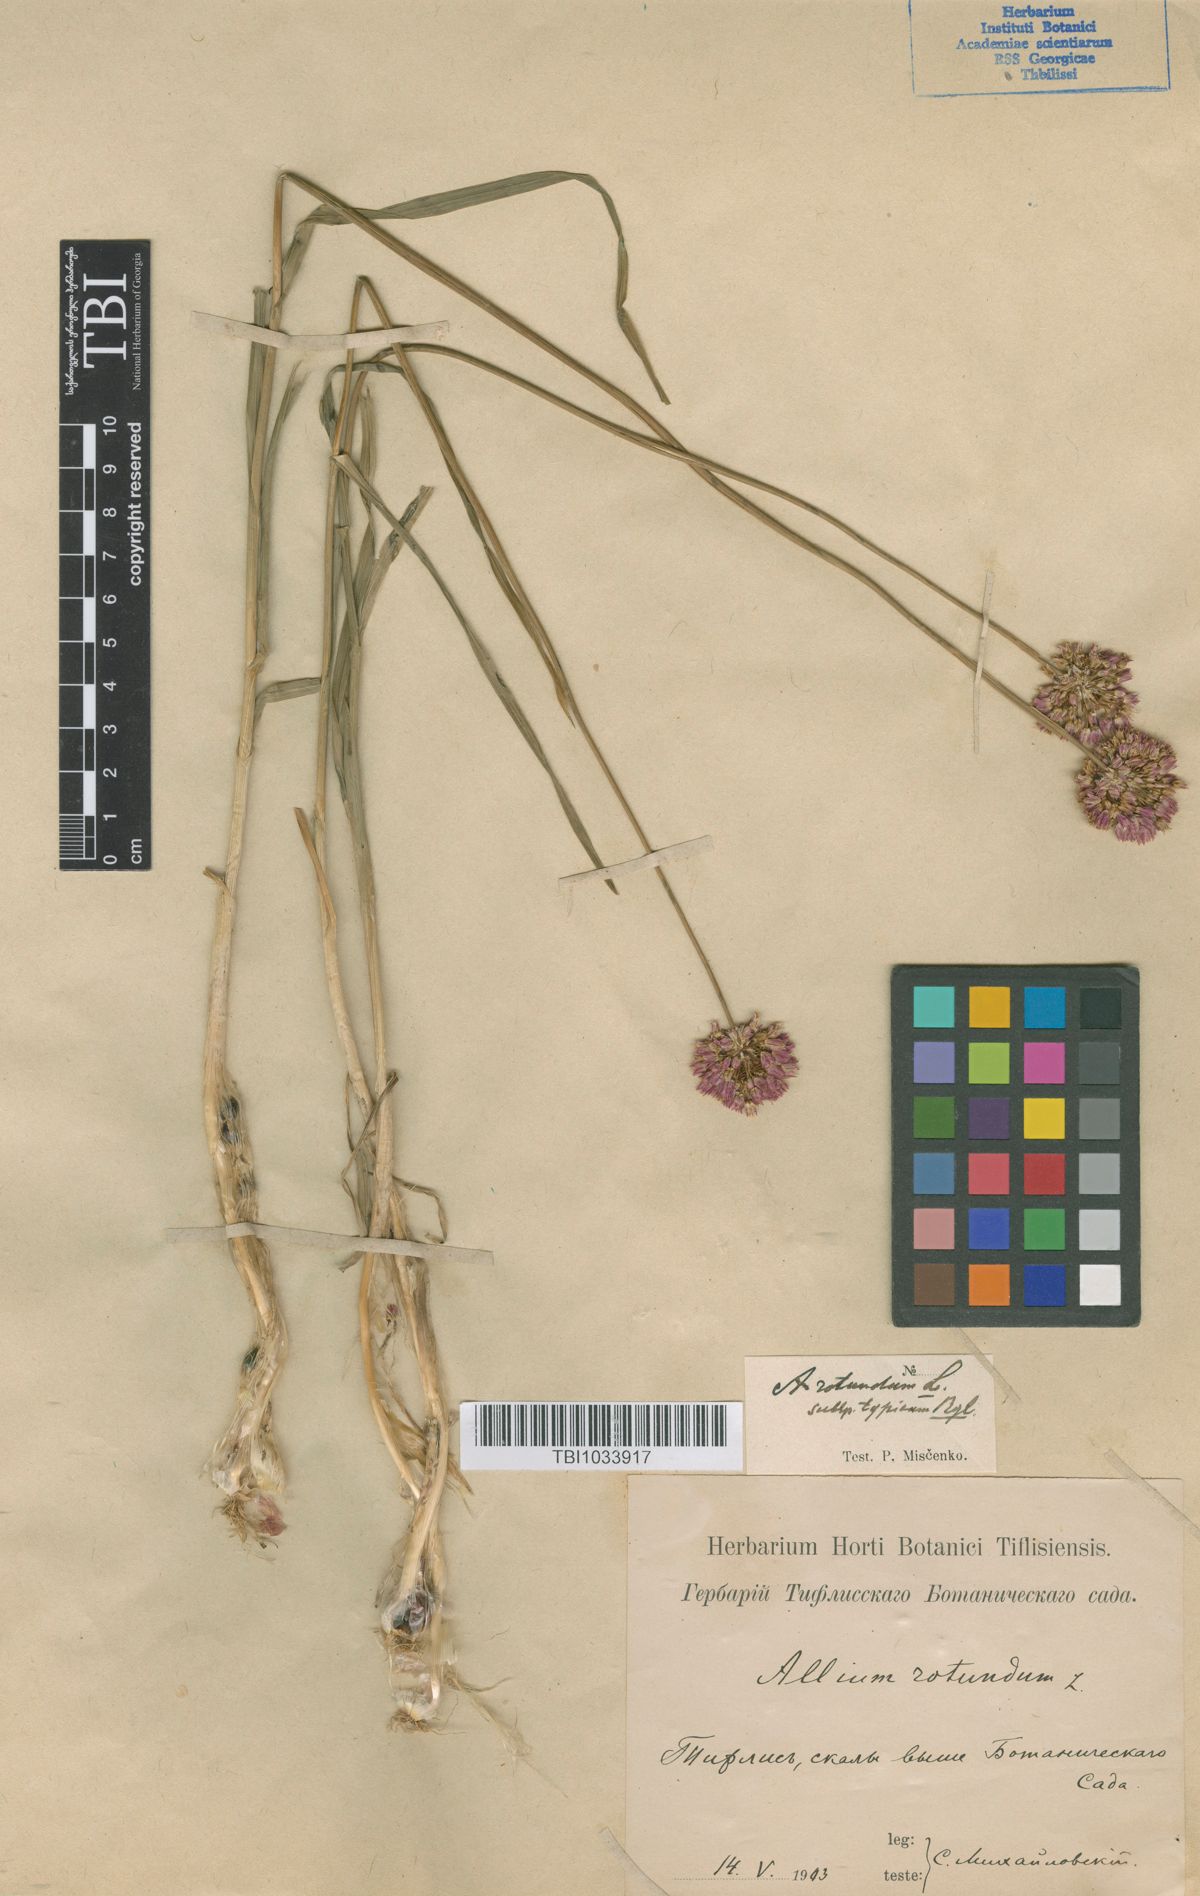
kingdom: Plantae
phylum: Tracheophyta
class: Liliopsida
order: Asparagales
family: Amaryllidaceae
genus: Allium
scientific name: Allium rotundum
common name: Sand leek
